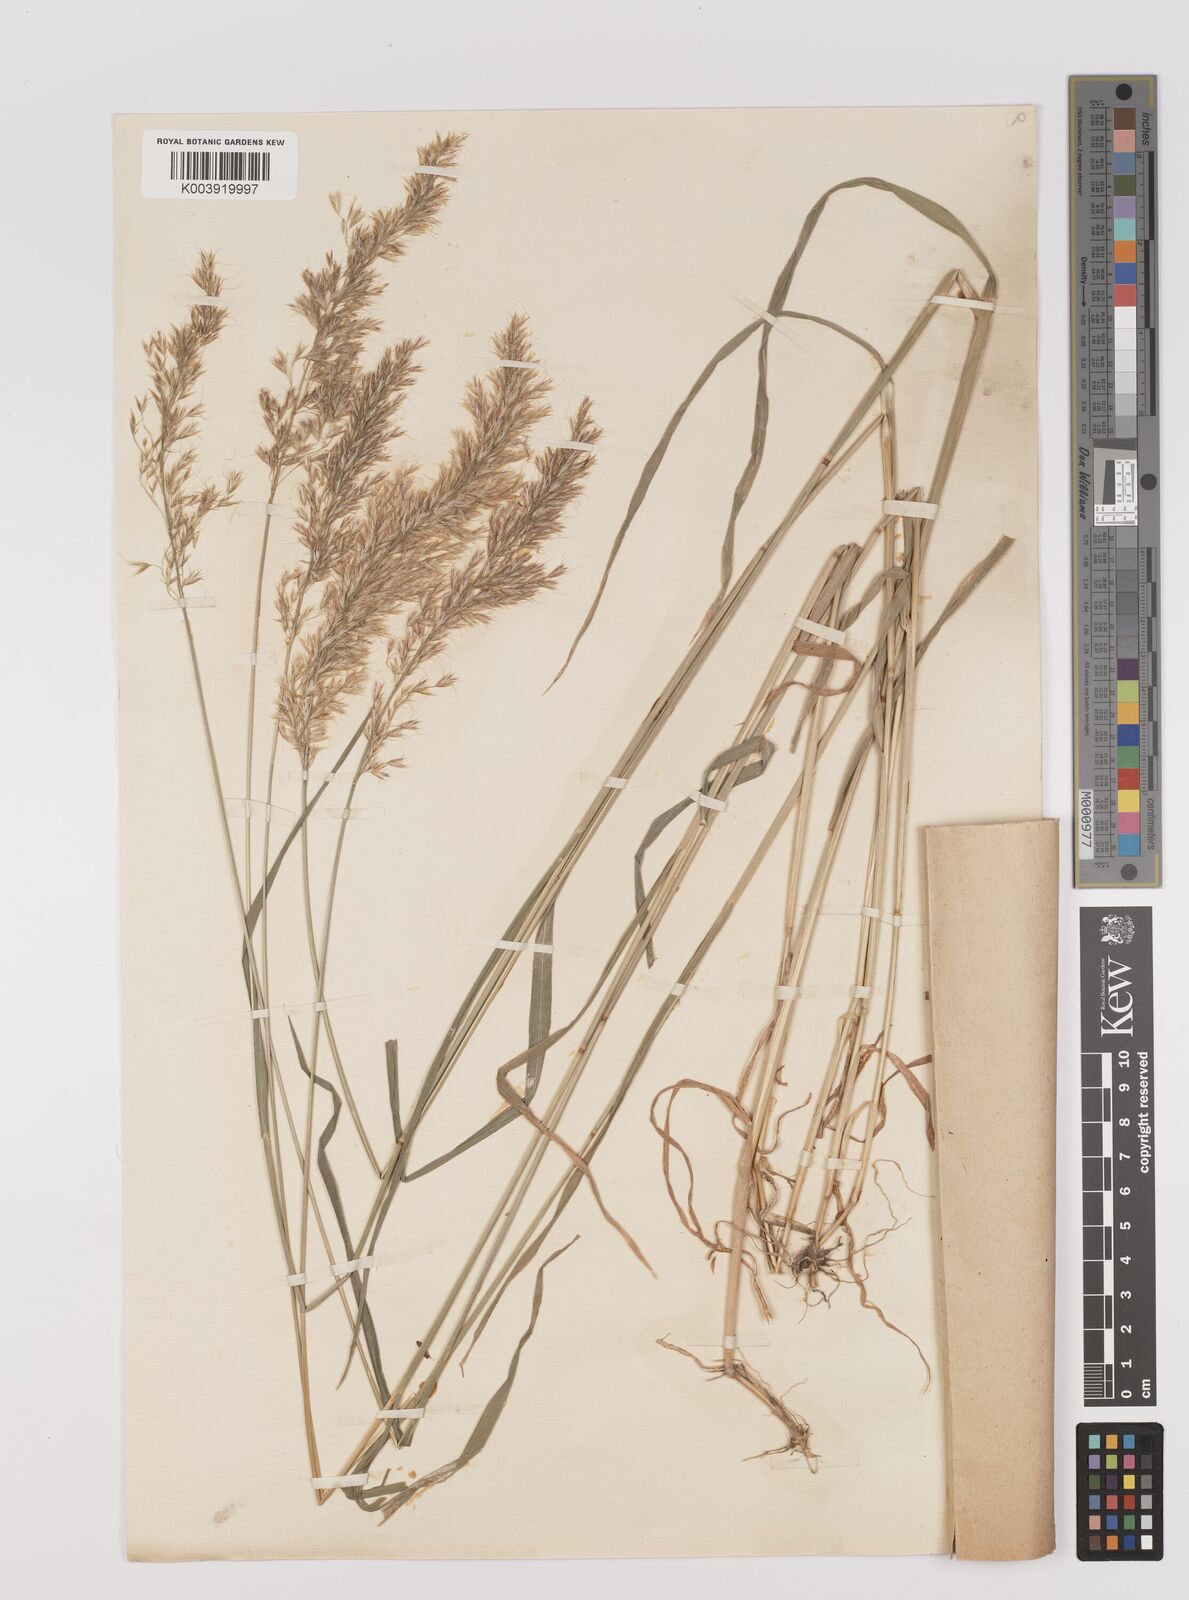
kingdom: Plantae
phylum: Tracheophyta
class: Liliopsida
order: Poales
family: Poaceae
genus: Trisetum
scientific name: Trisetum flavescens
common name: Yellow oat-grass
